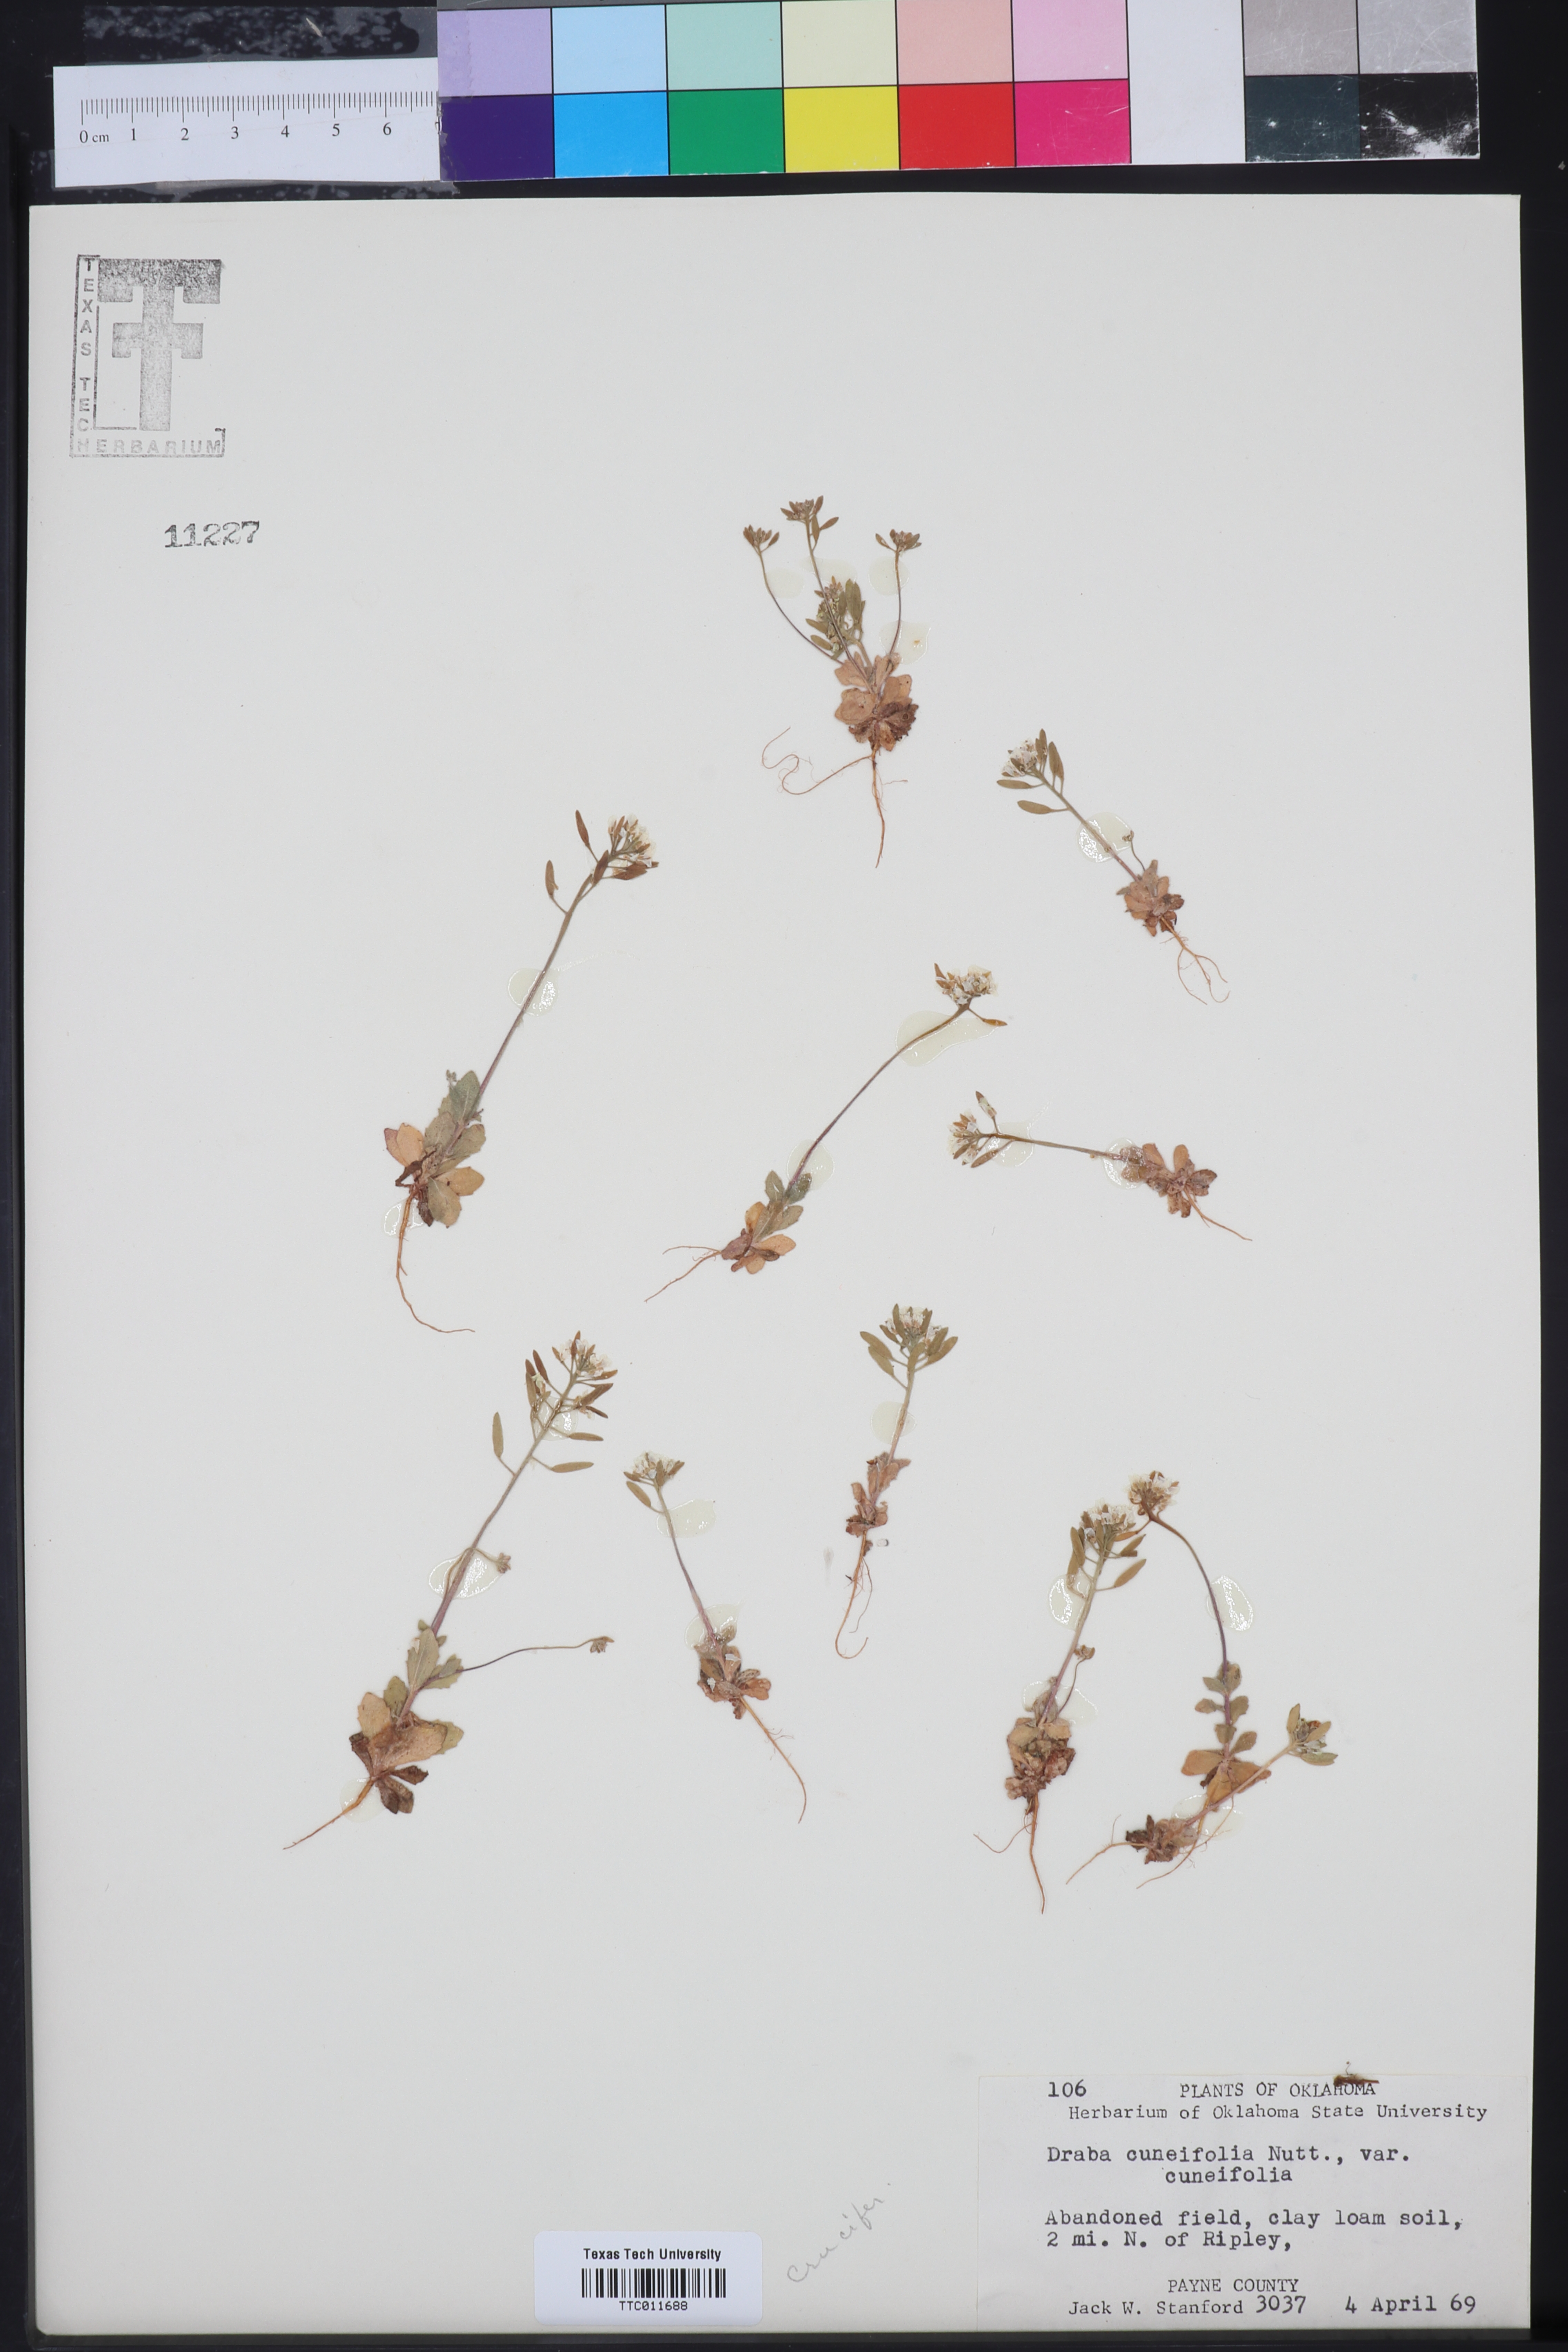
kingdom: Plantae
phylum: Tracheophyta
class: Magnoliopsida
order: Brassicales
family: Brassicaceae
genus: Tomostima
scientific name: Tomostima cuneifolia
